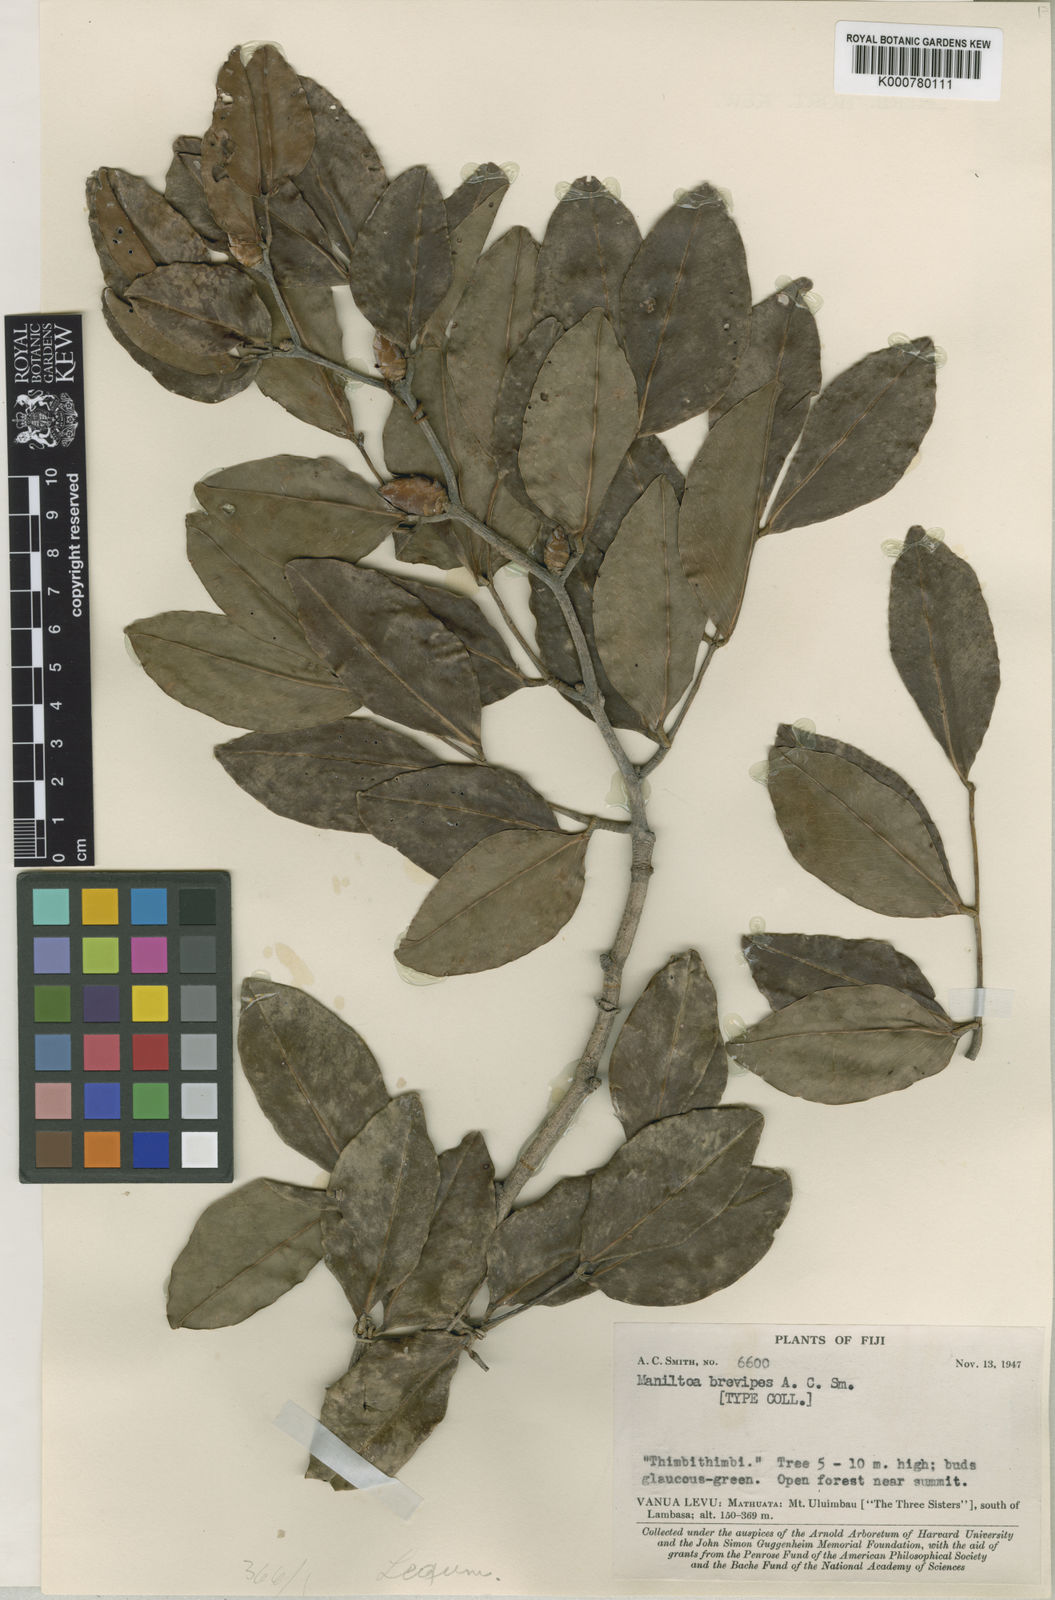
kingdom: Plantae
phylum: Tracheophyta
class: Magnoliopsida
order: Fabales
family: Fabaceae
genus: Cynometra
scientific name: Cynometra grandiflora
